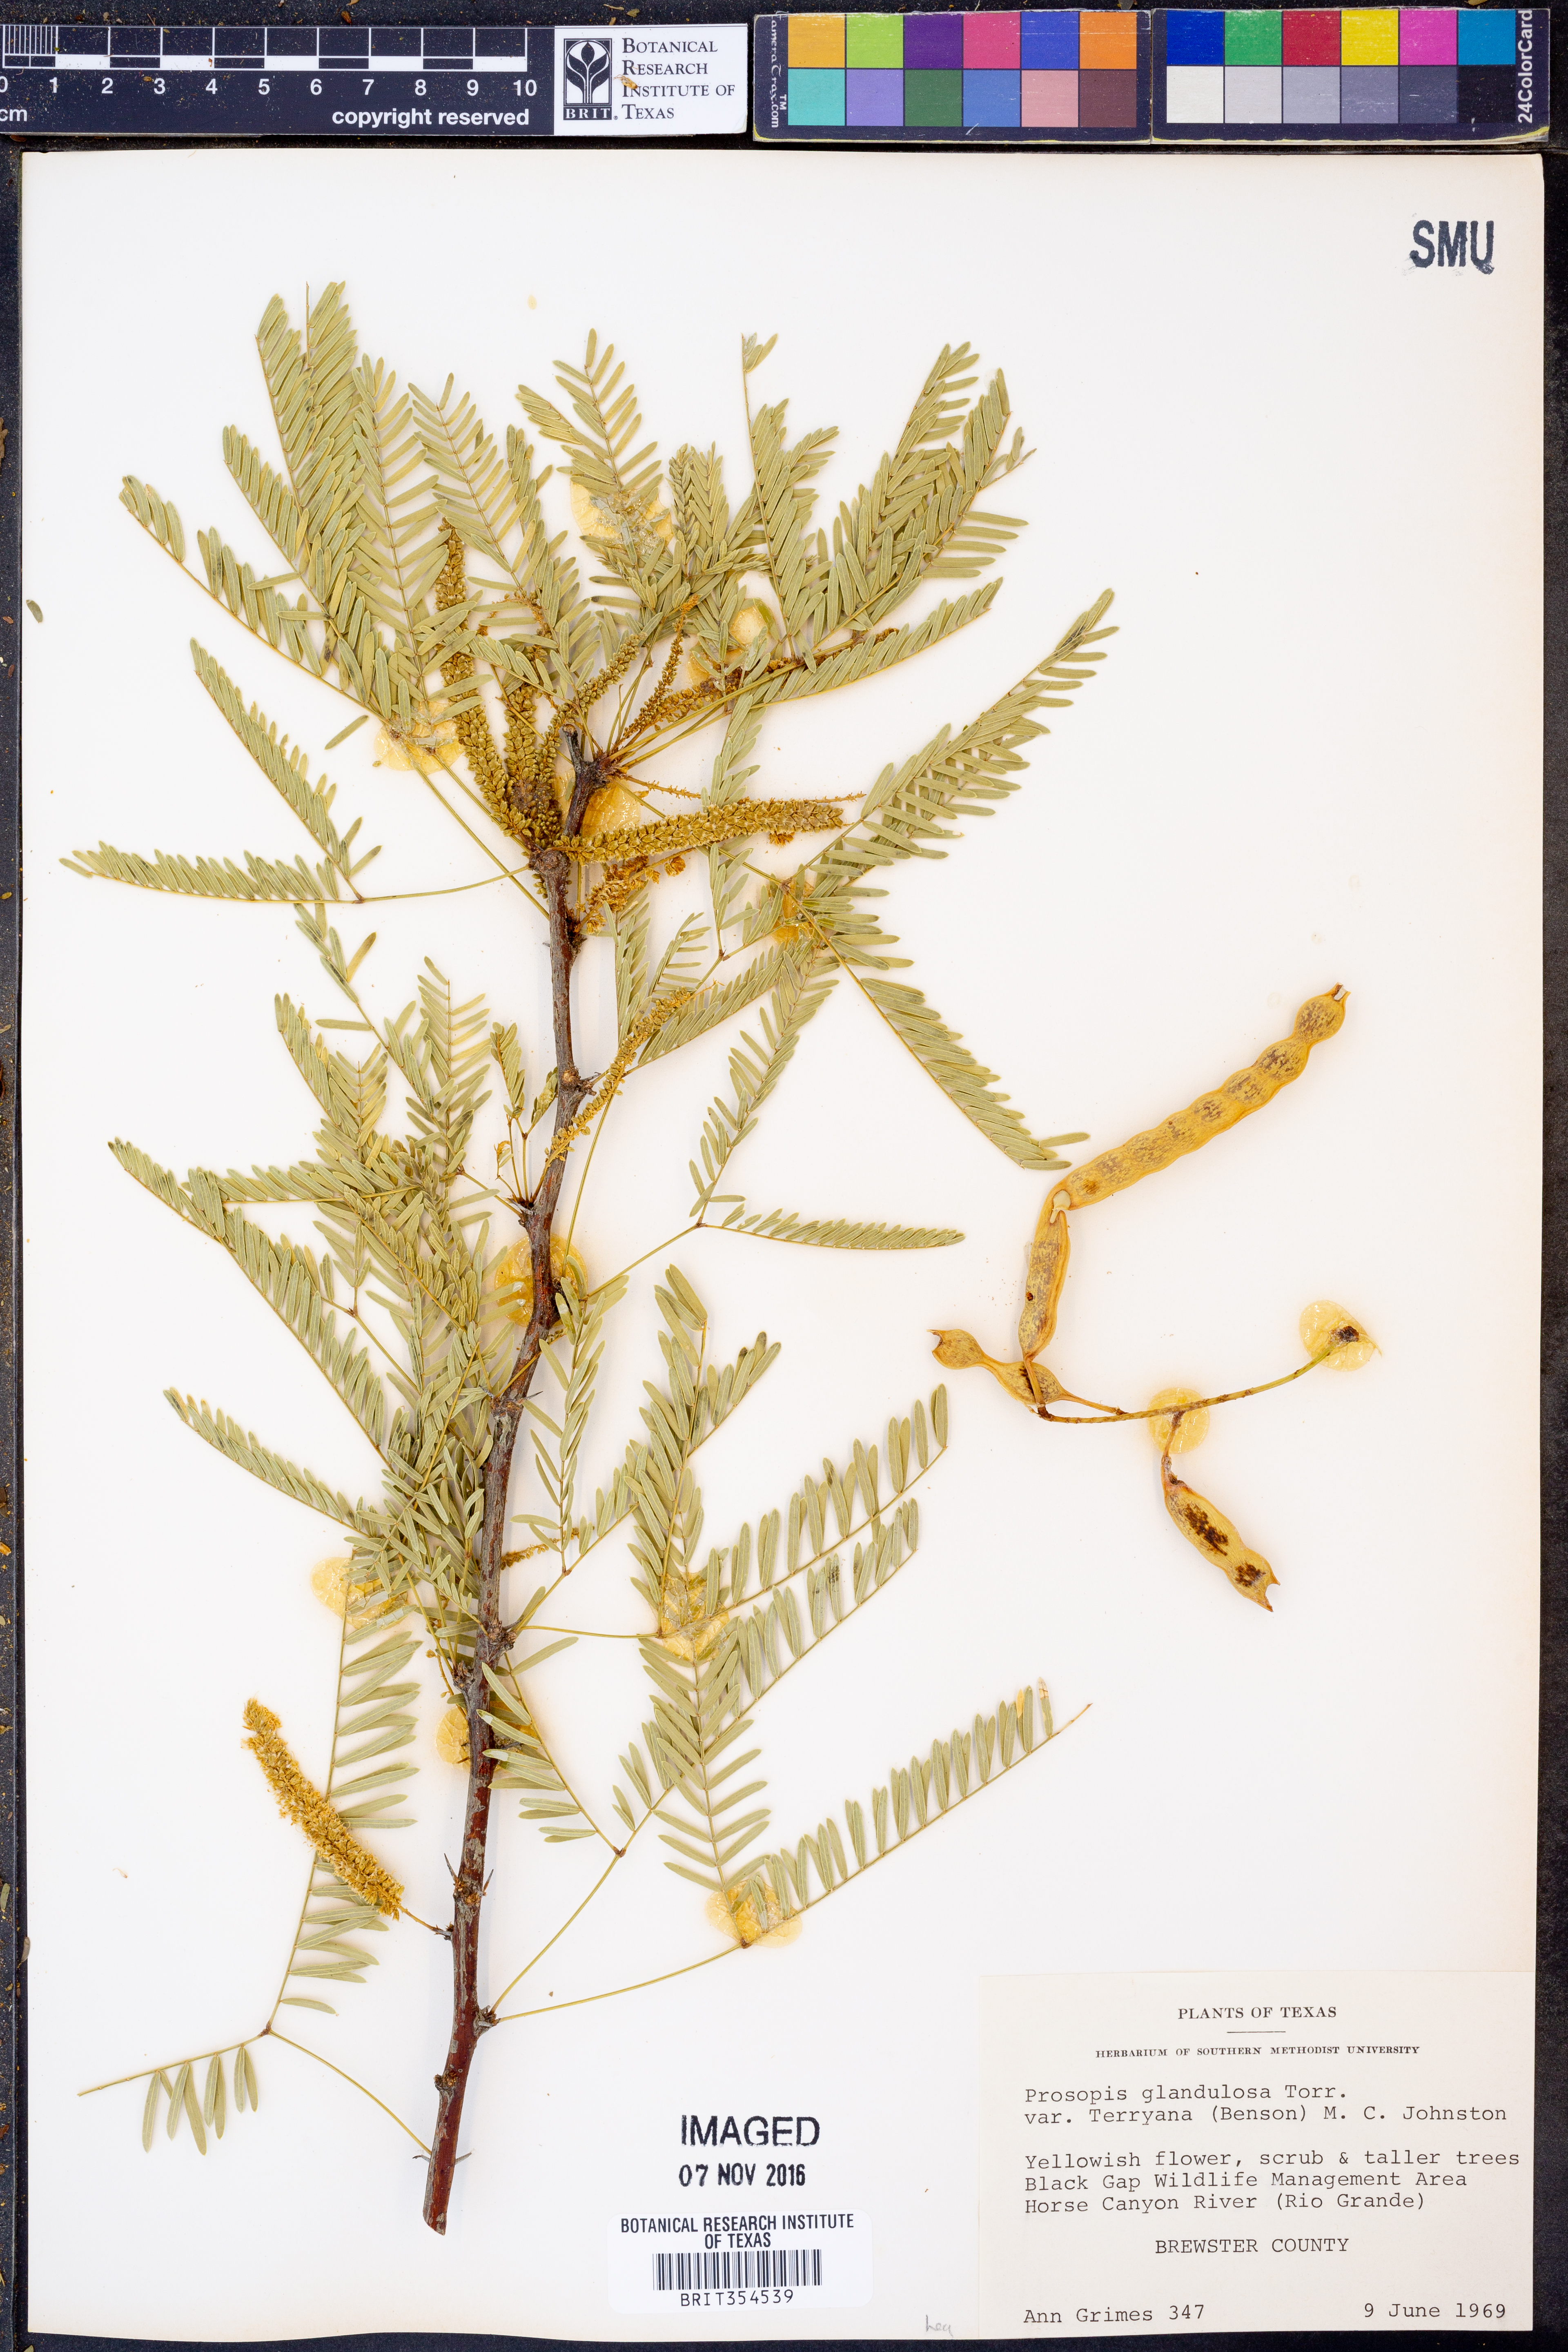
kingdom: Plantae
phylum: Tracheophyta
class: Magnoliopsida
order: Fabales
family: Fabaceae
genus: Prosopis
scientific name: Prosopis glandulosa
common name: Honey mesquite
